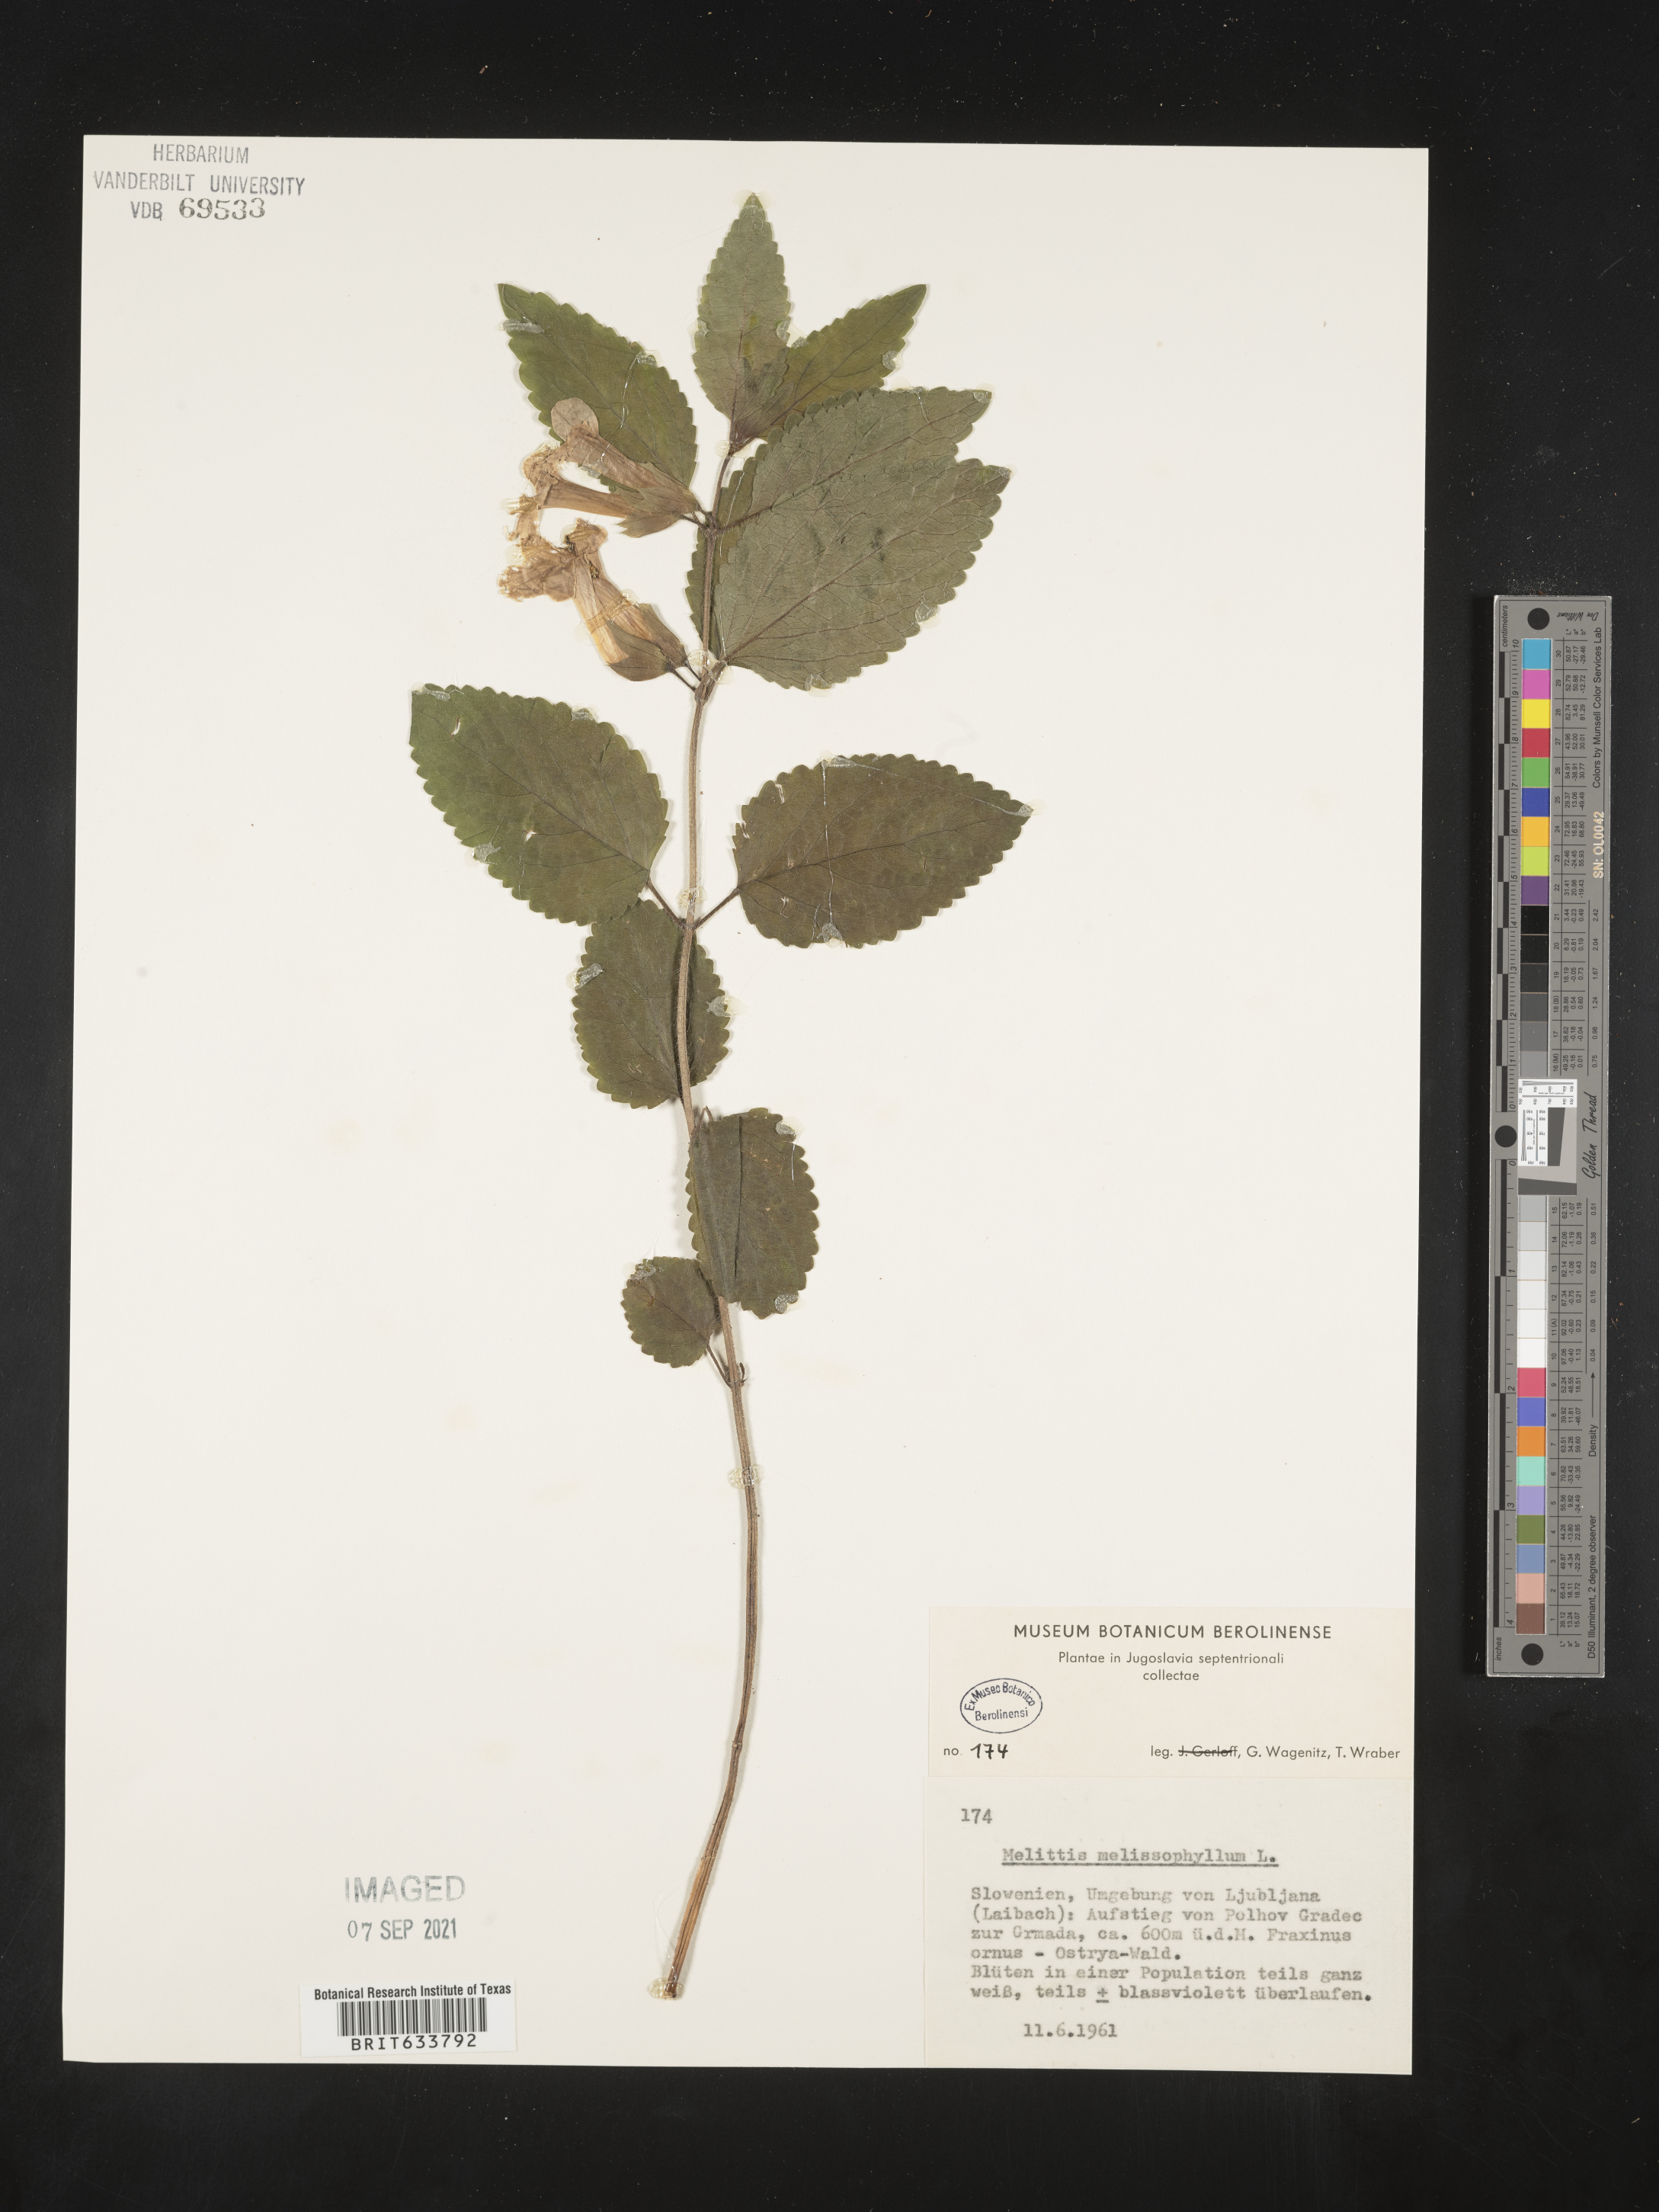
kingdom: Plantae
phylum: Tracheophyta
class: Magnoliopsida
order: Lamiales
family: Lamiaceae
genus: Melittis
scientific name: Melittis
